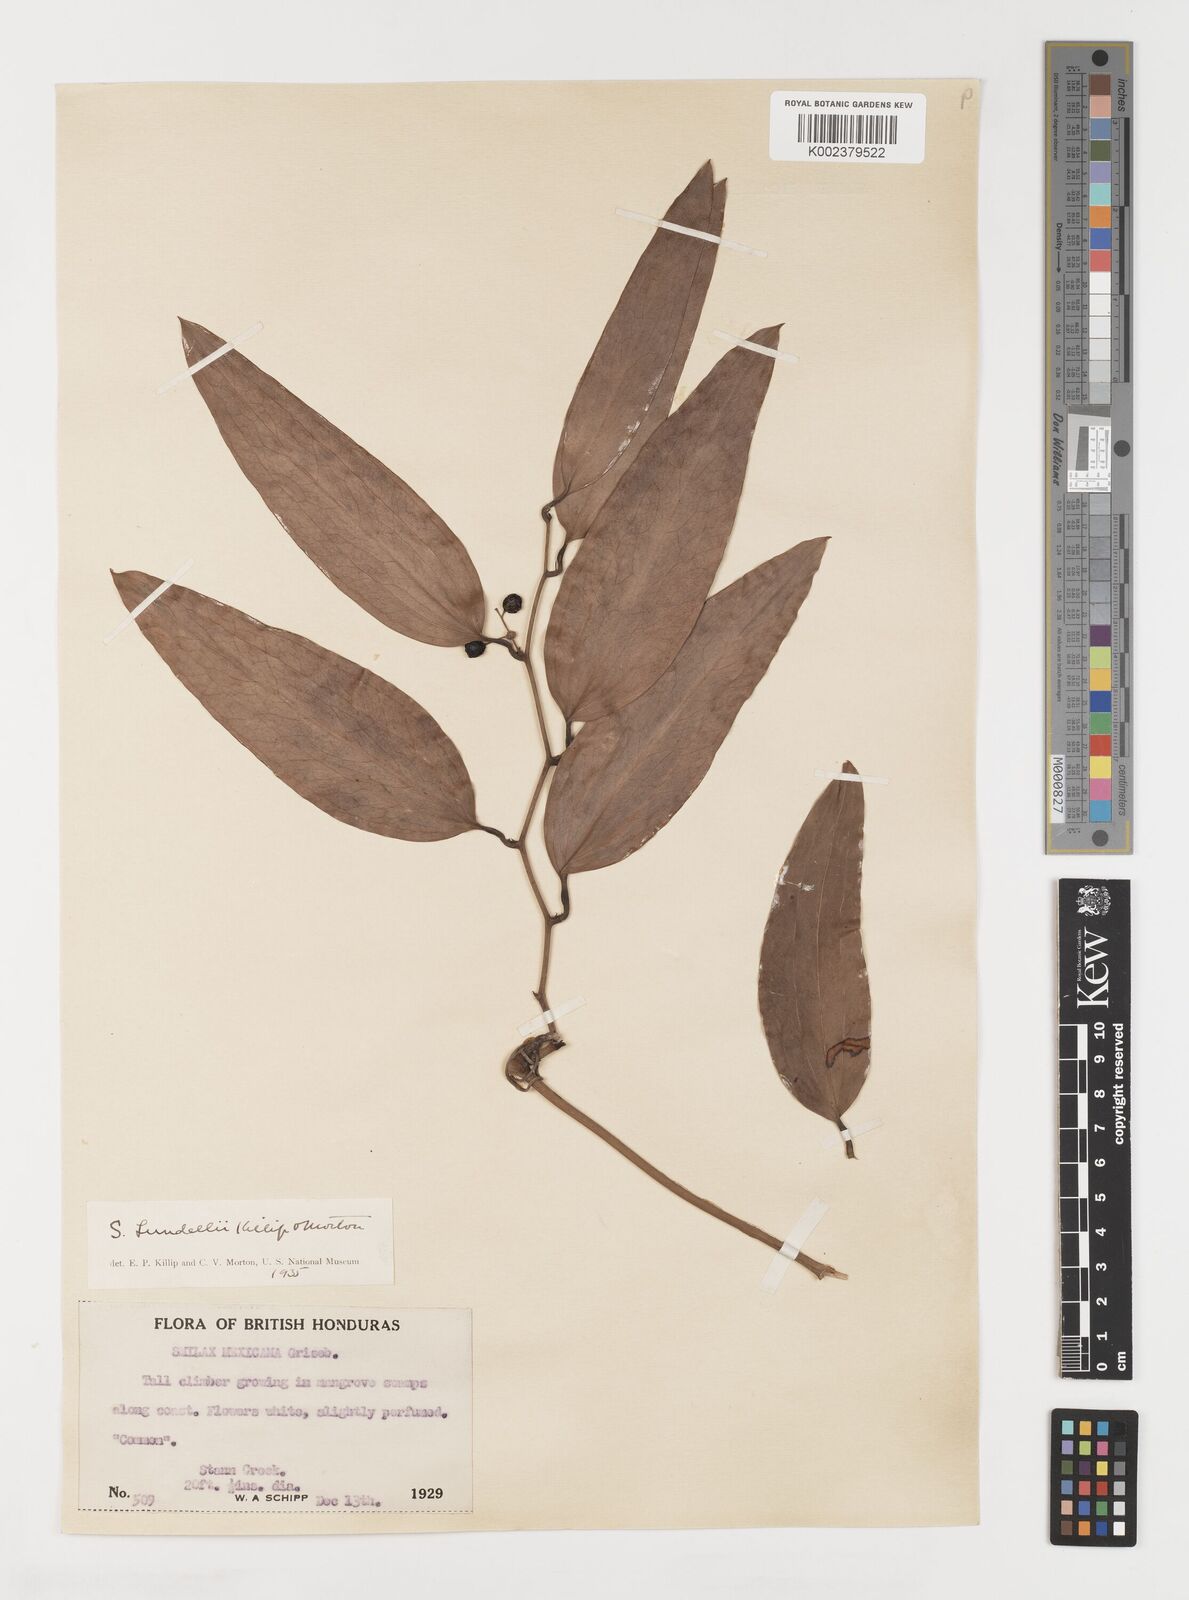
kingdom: Plantae
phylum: Tracheophyta
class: Liliopsida
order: Liliales
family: Smilacaceae
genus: Smilax
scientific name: Smilax spinosa
